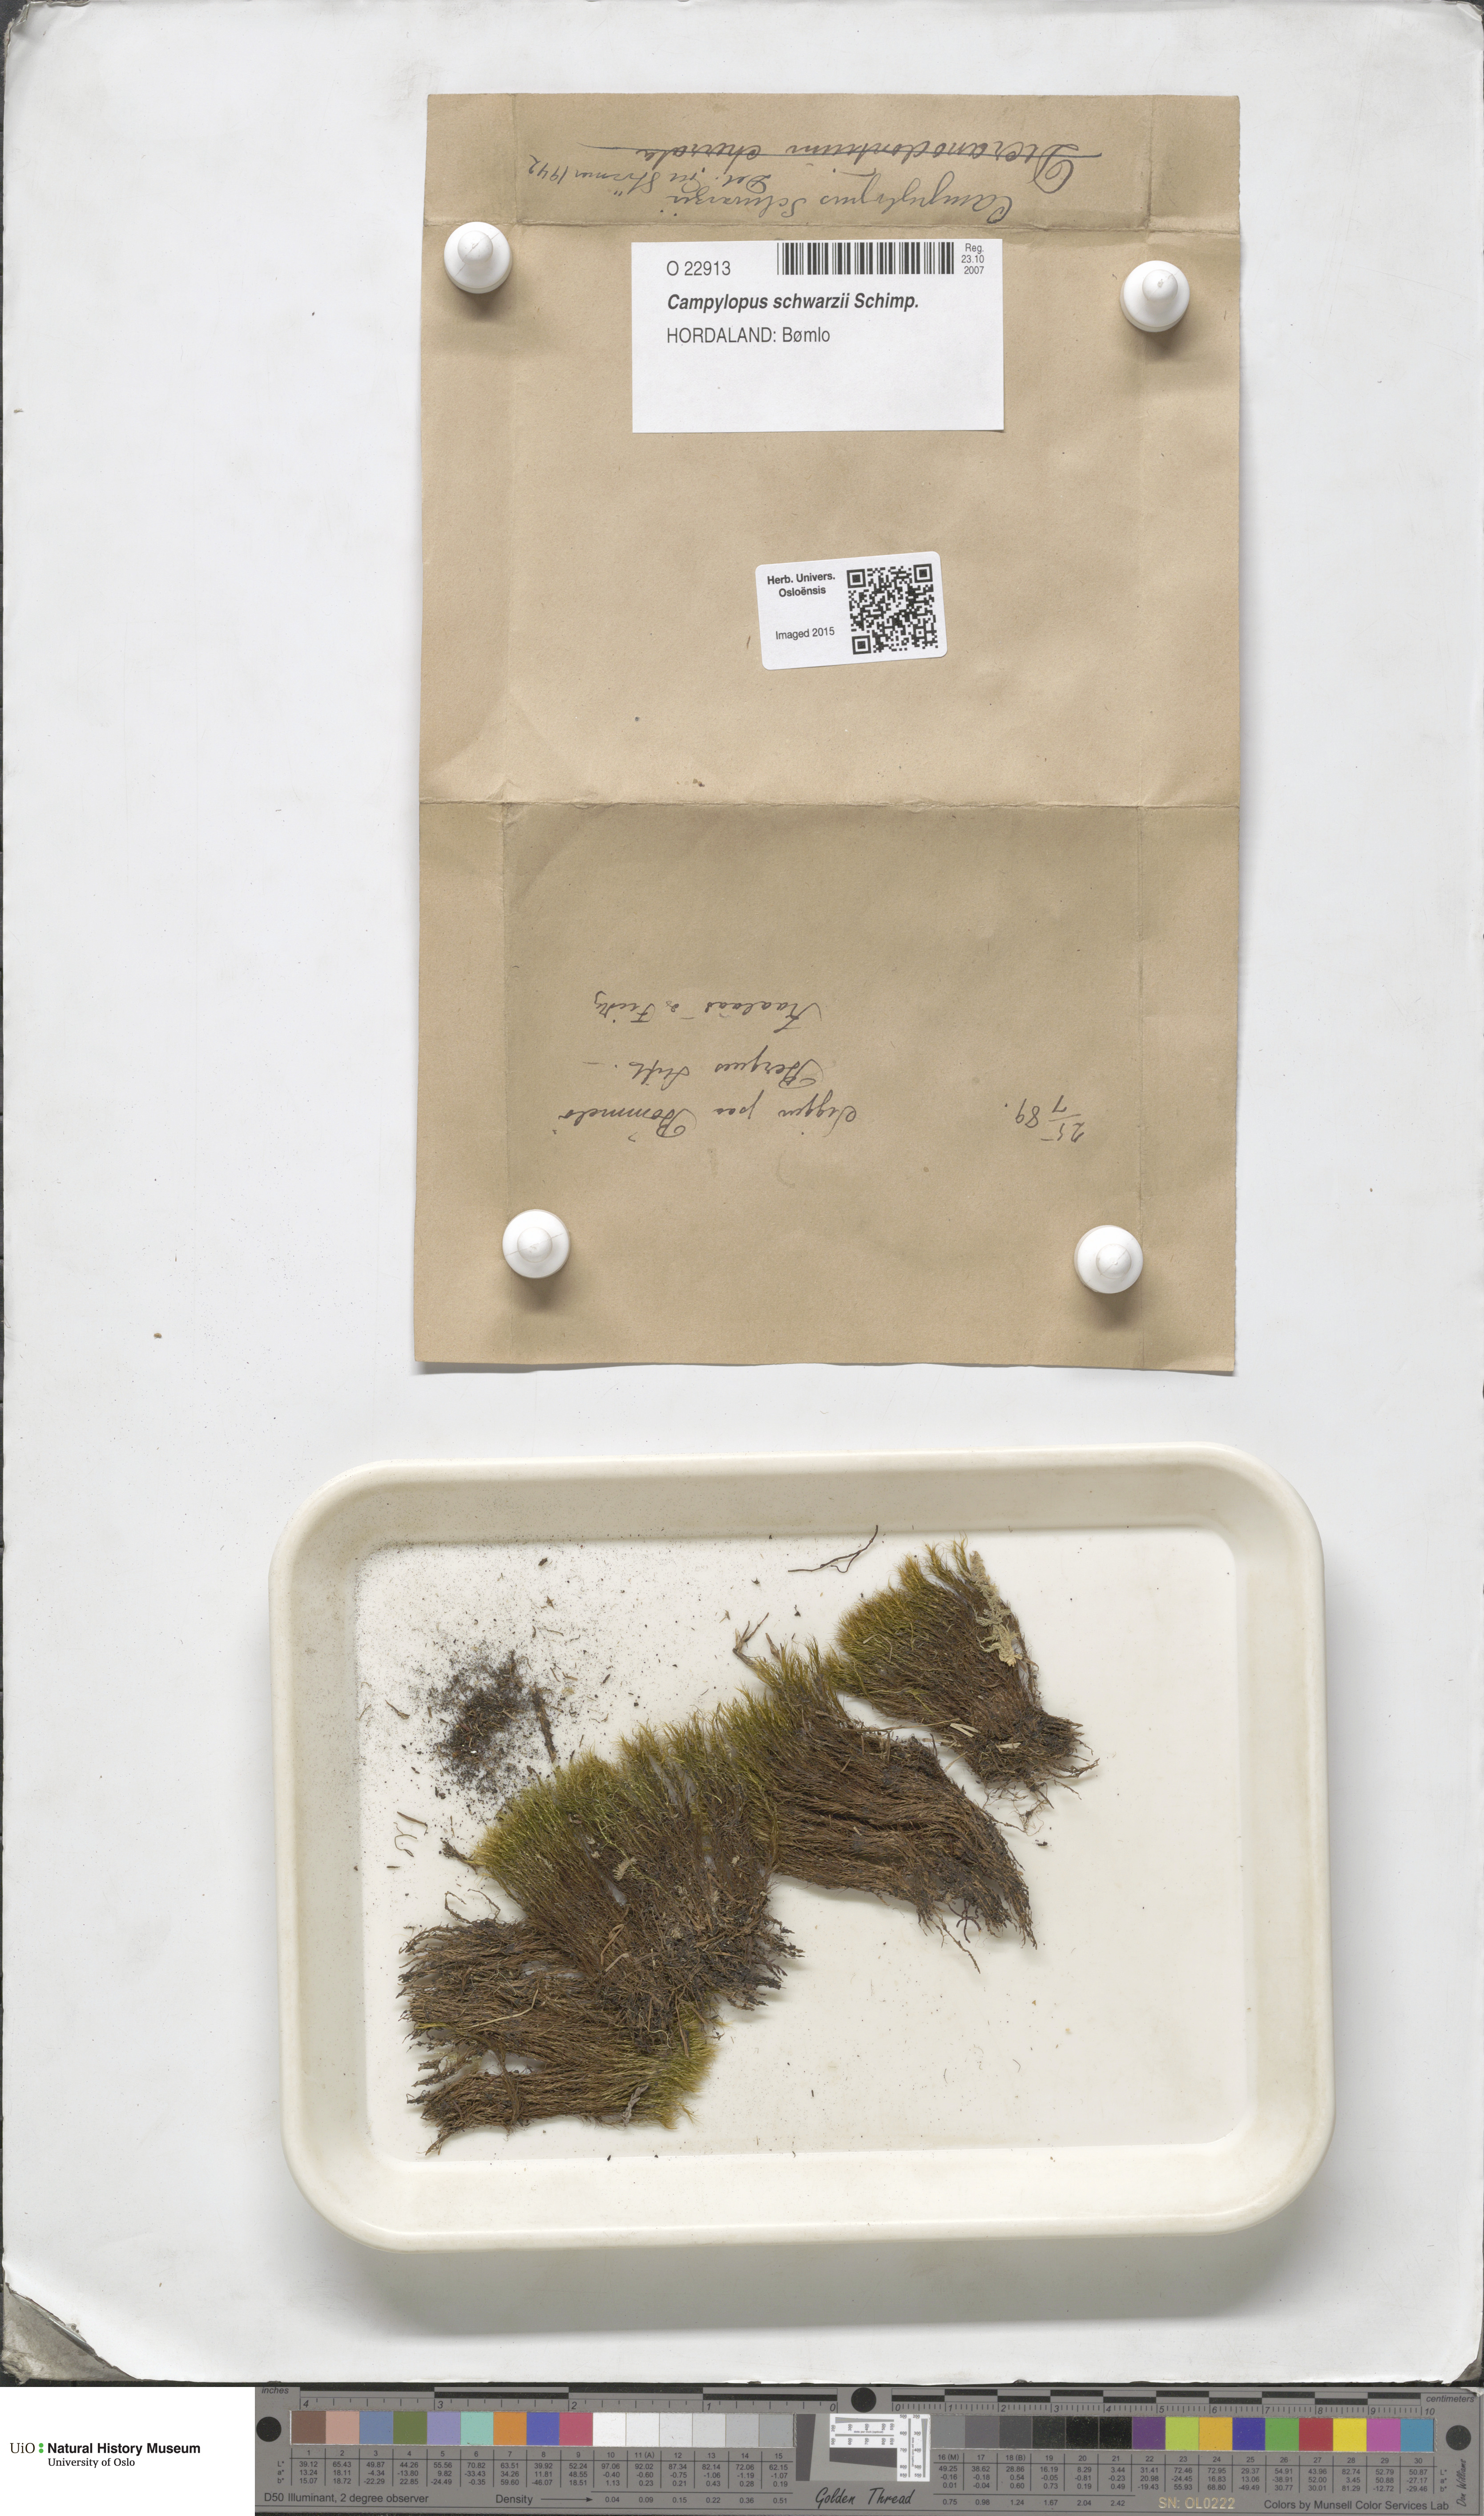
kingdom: Plantae
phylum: Bryophyta
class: Bryopsida
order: Dicranales
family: Leucobryaceae
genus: Campylopus
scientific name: Campylopus gracilis
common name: Schwarz's swan-neck moss
